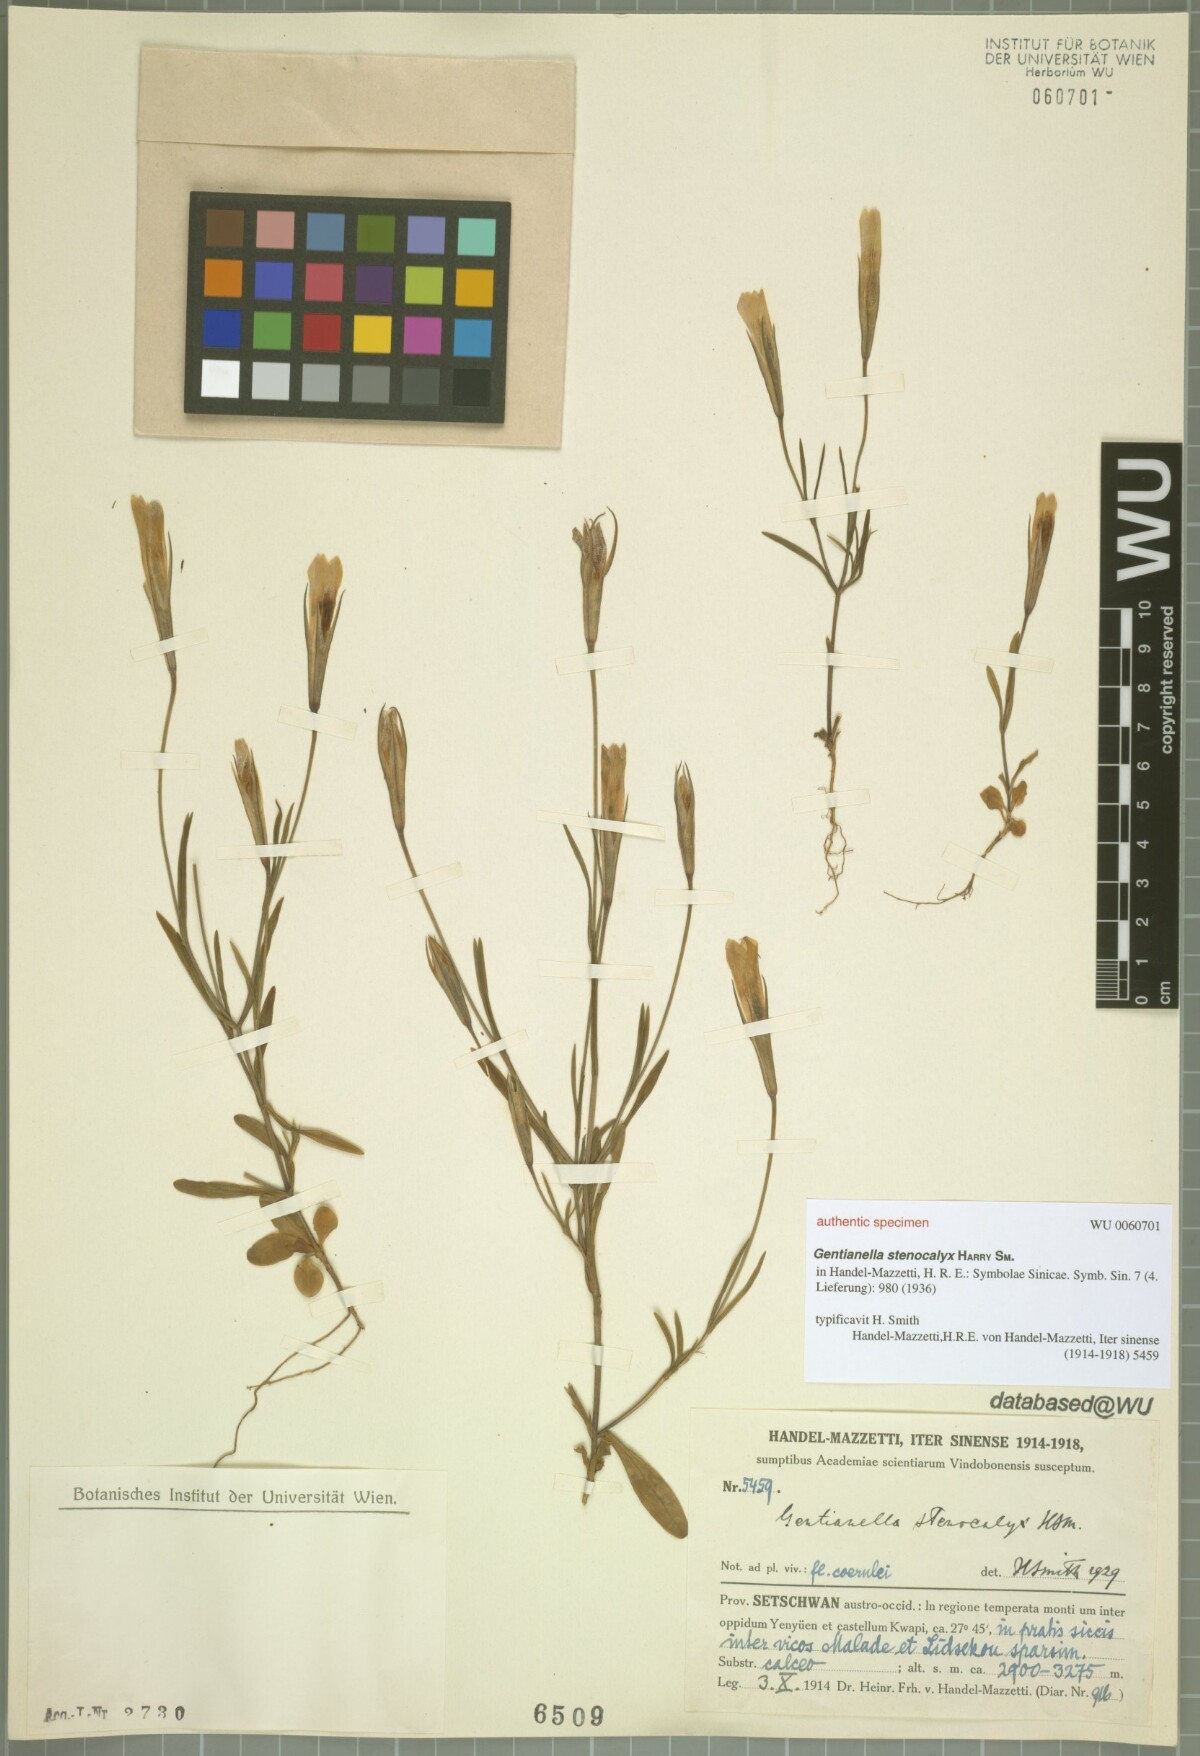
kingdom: Plantae
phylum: Tracheophyta
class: Magnoliopsida
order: Gentianales
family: Gentianaceae
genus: Gentianopsis
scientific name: Gentianopsis barbata
